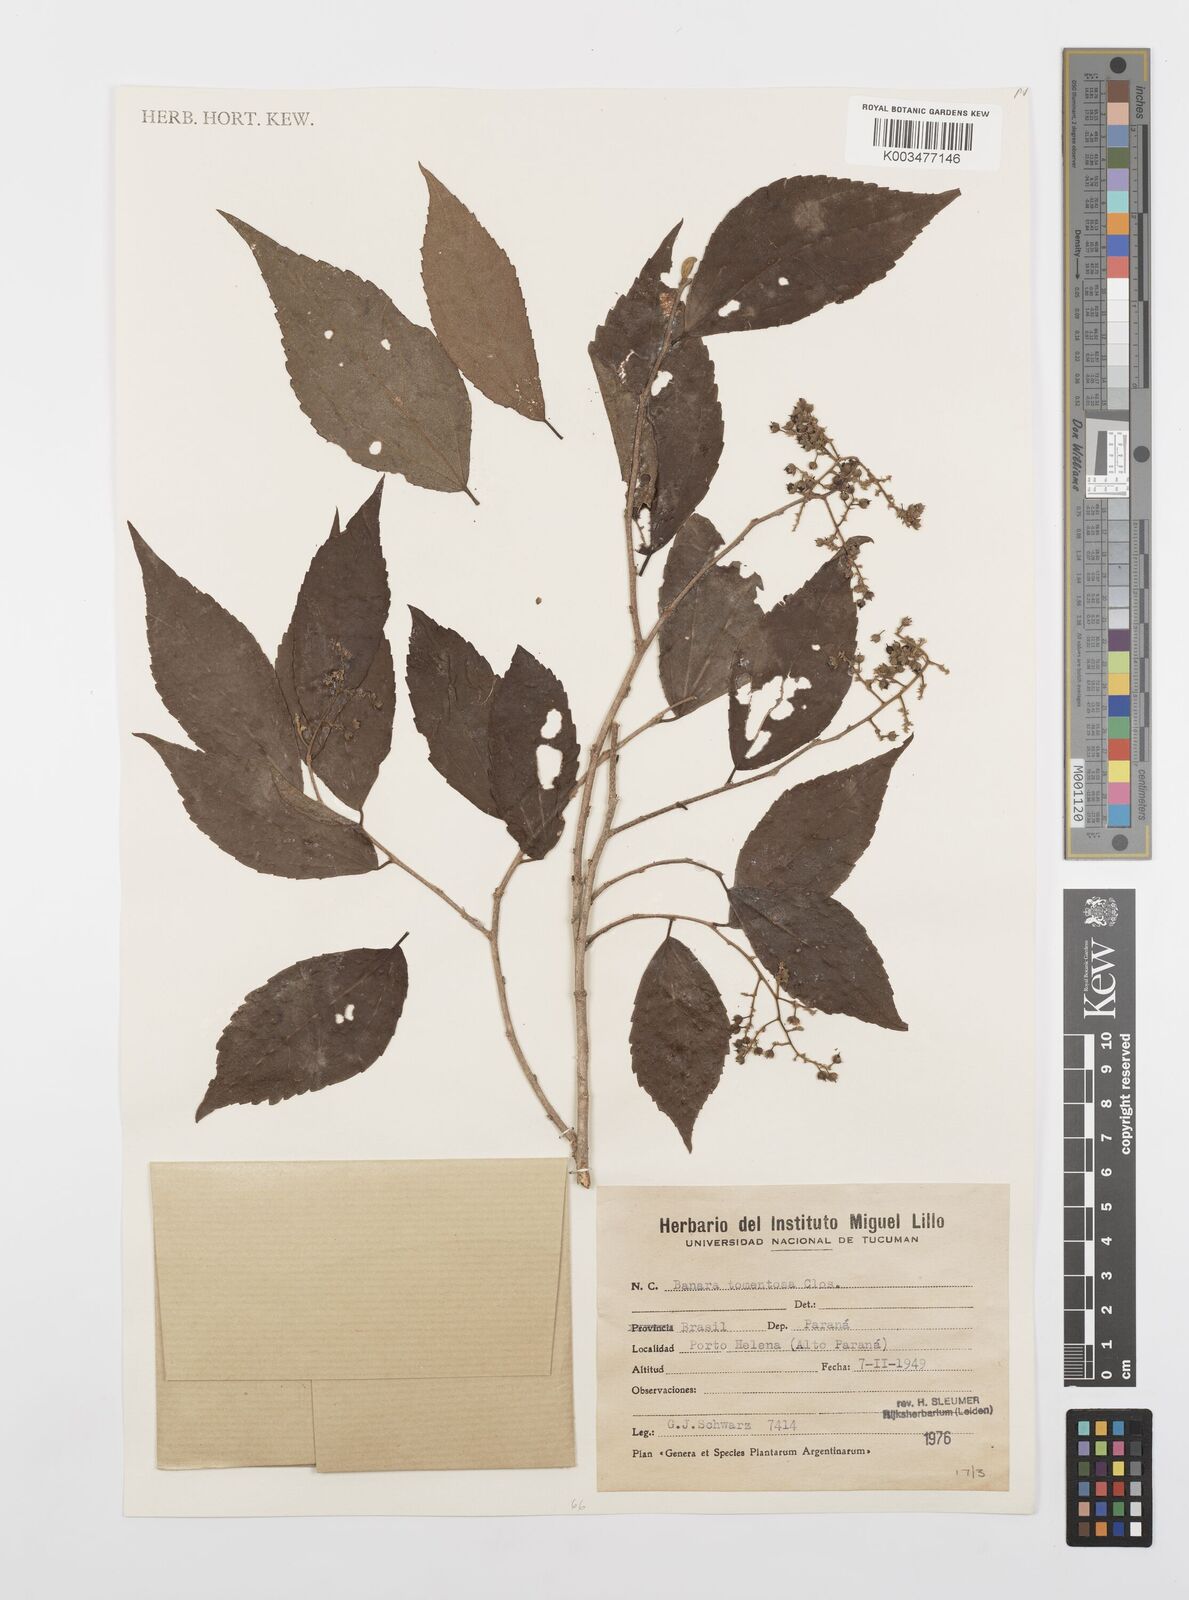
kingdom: Plantae
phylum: Tracheophyta
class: Magnoliopsida
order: Malpighiales
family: Salicaceae
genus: Banara
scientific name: Banara tomentosa
